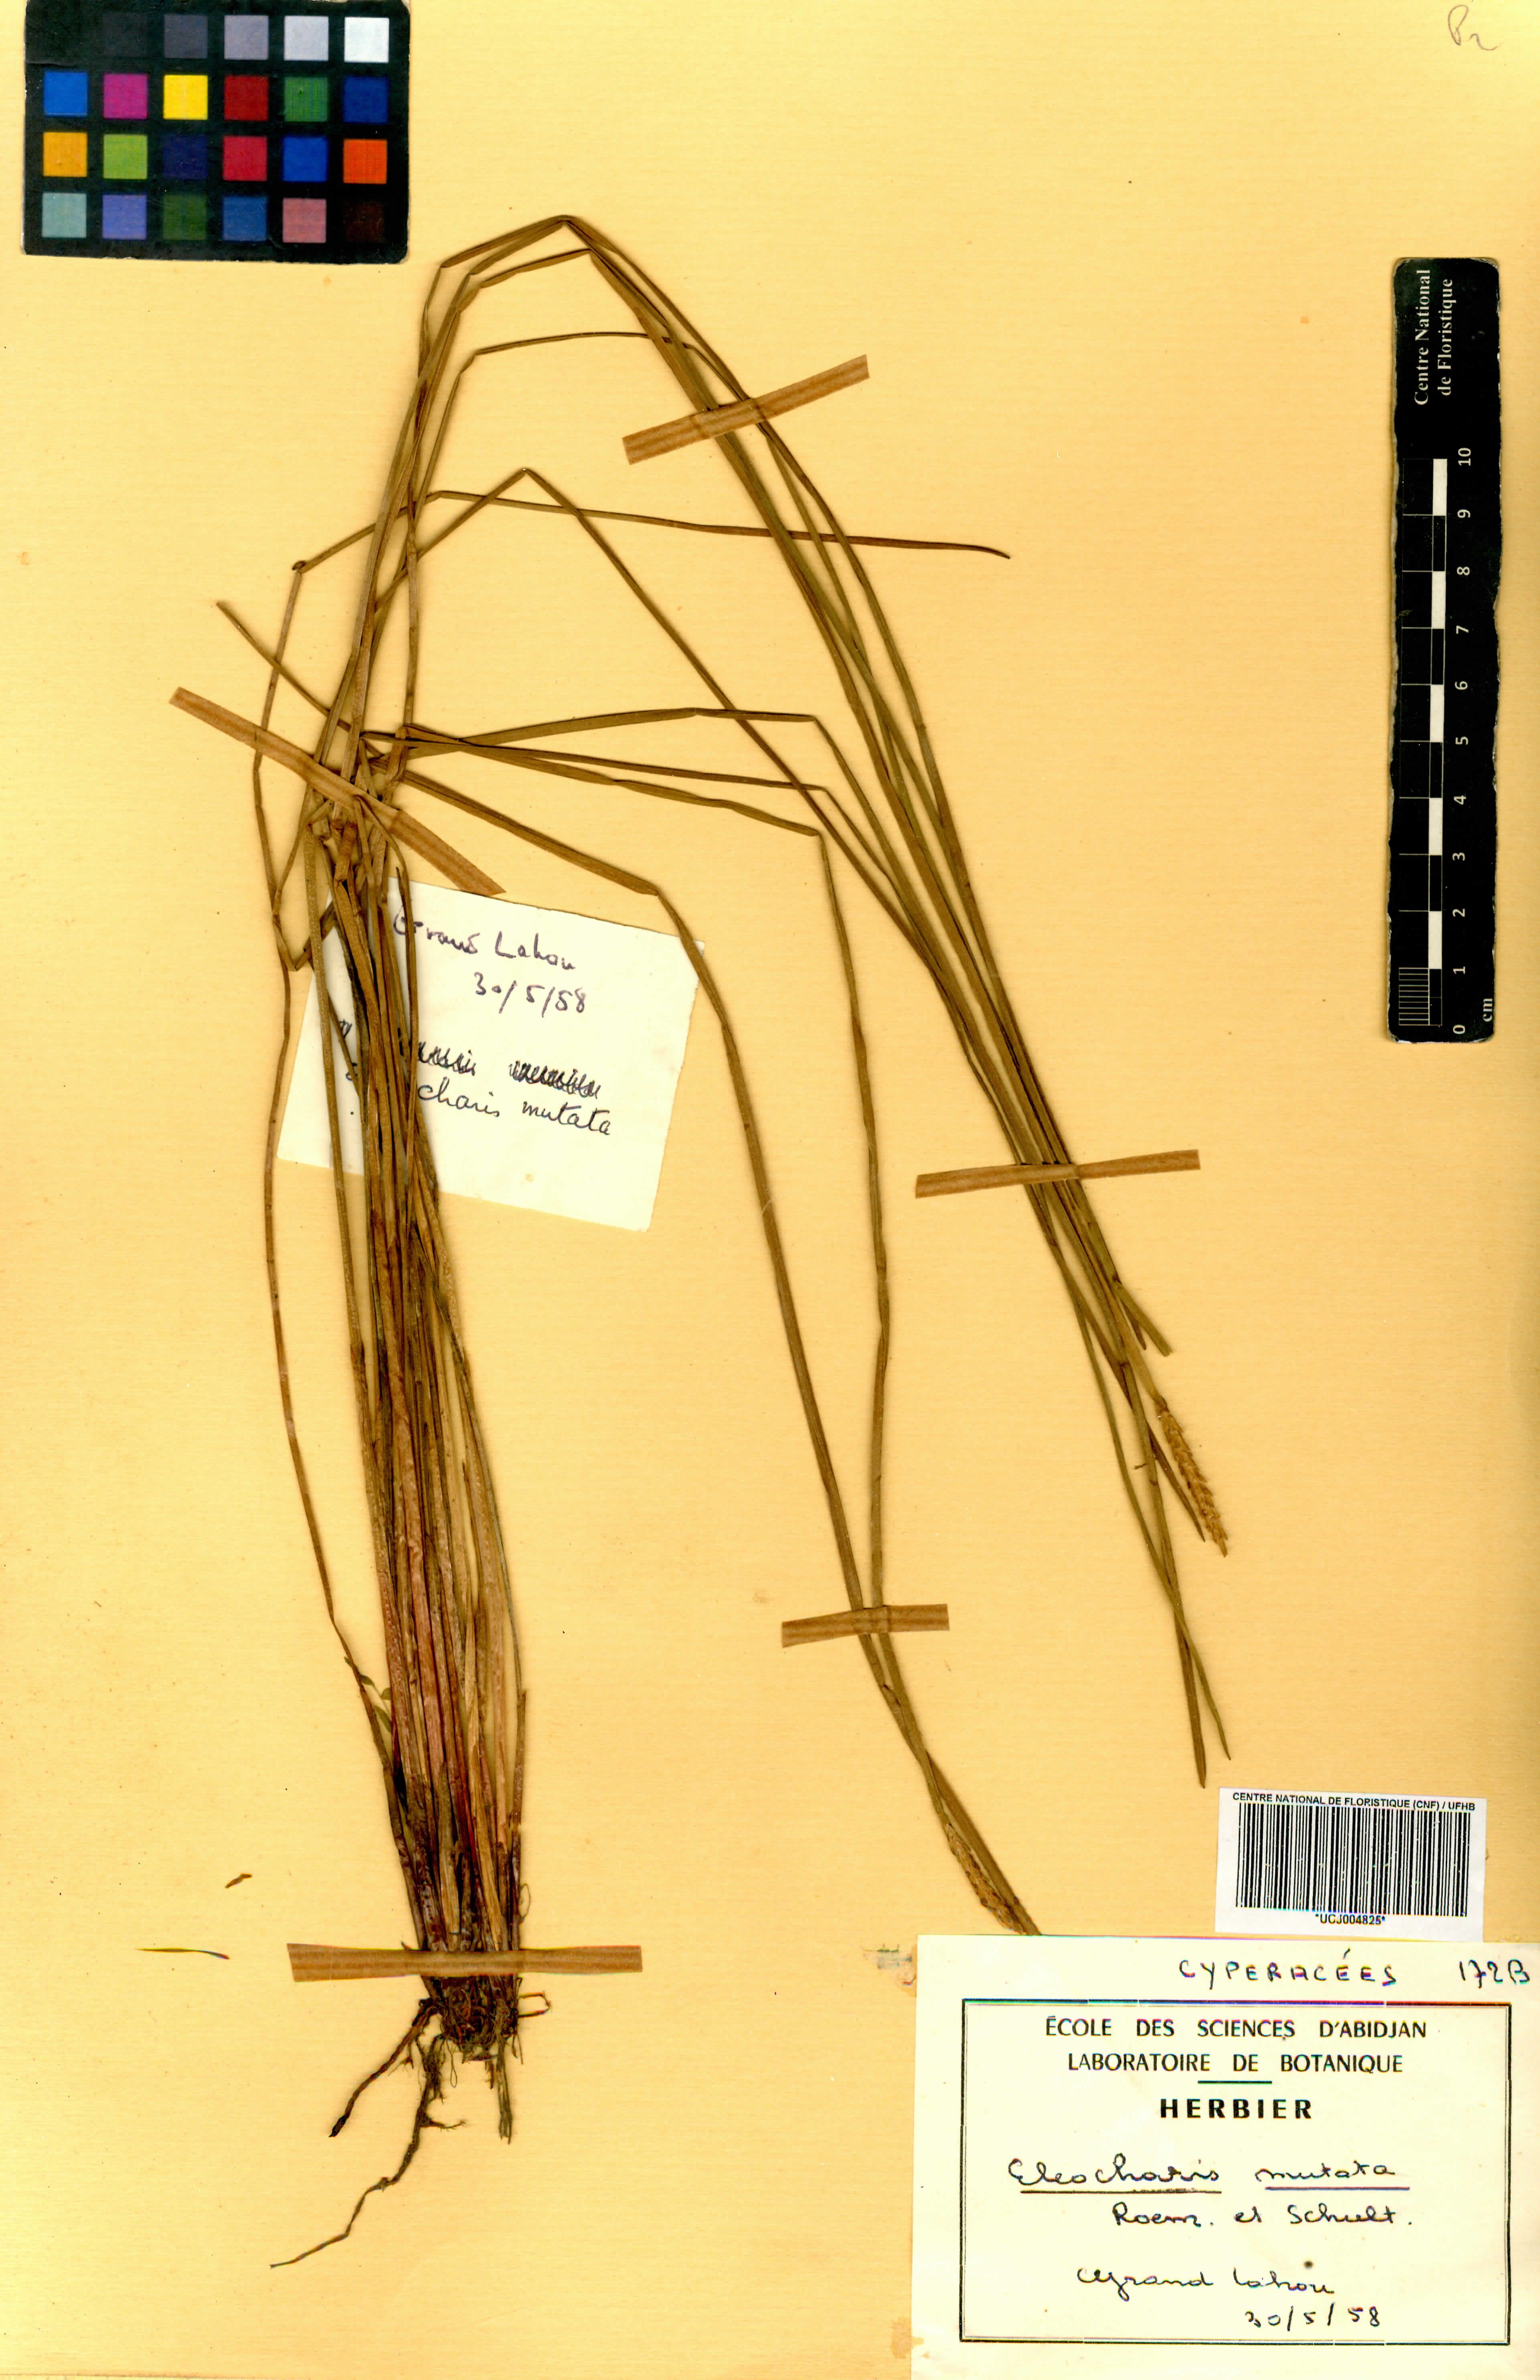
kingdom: Plantae
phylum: Tracheophyta
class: Liliopsida
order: Poales
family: Cyperaceae
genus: Eleocharis
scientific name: Eleocharis mutata
